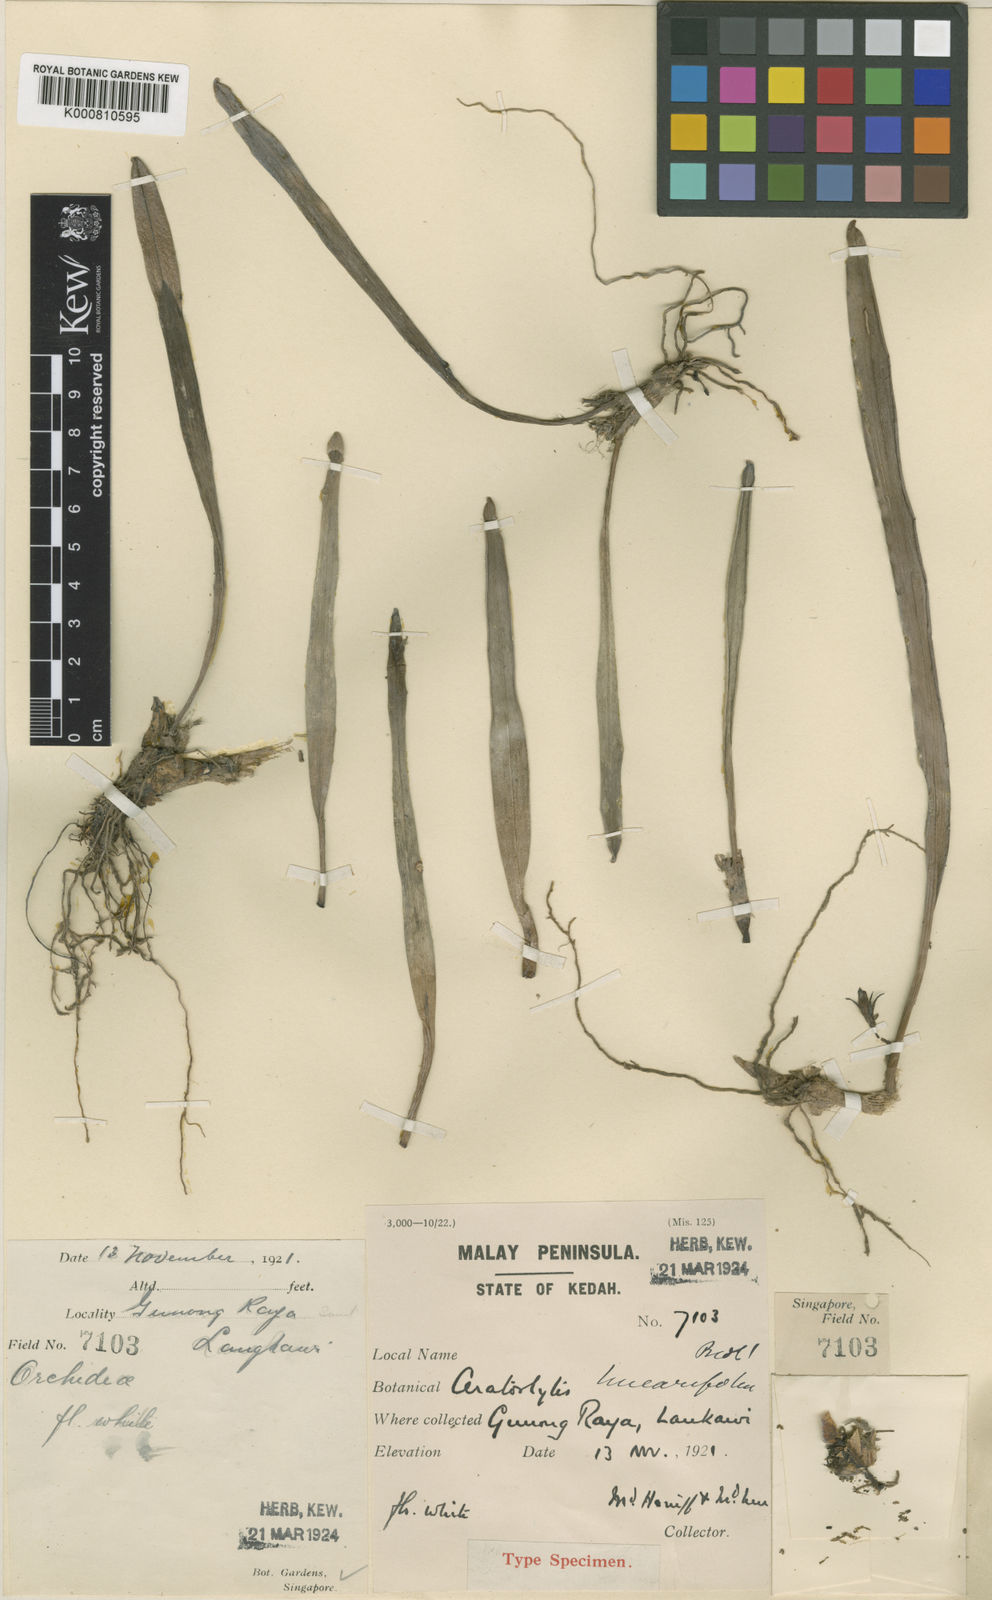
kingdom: Plantae
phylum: Tracheophyta
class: Liliopsida
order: Asparagales
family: Orchidaceae
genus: Ceratostylis
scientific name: Ceratostylis radiata
